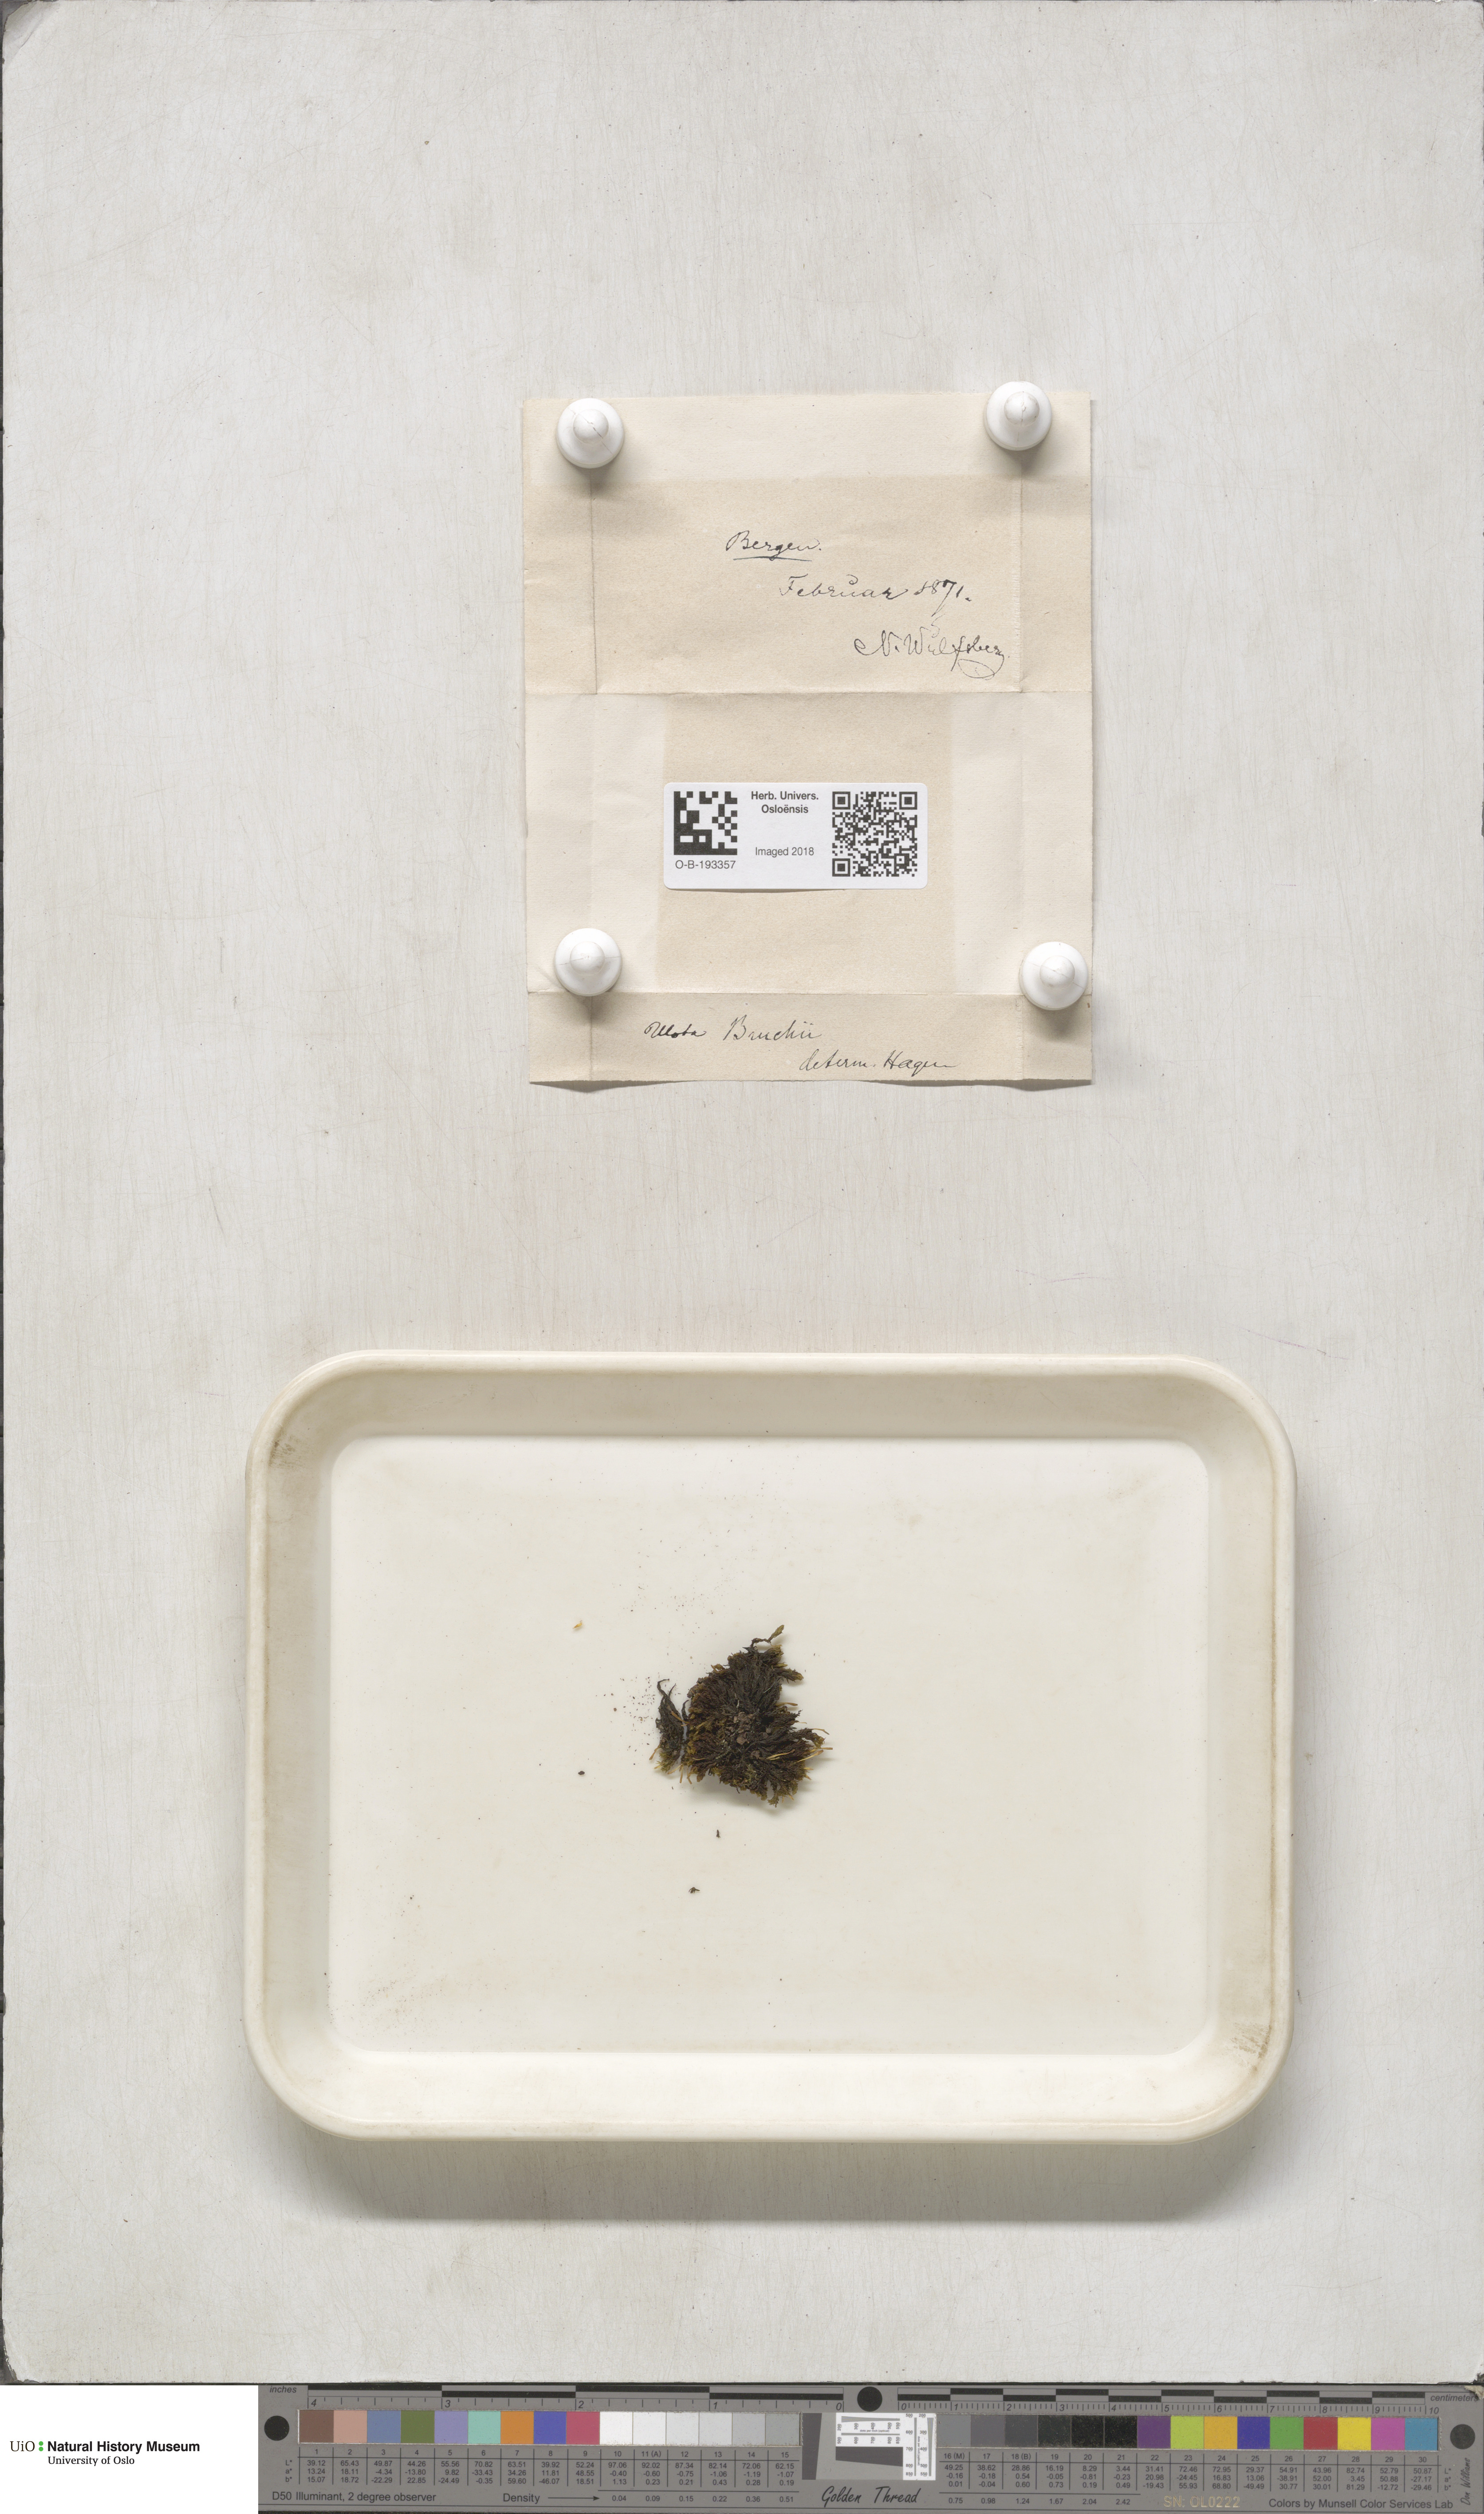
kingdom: Plantae
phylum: Bryophyta
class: Bryopsida
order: Orthotrichales
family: Orthotrichaceae
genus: Ulota
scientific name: Ulota bruchii
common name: Bruch's pincushion
